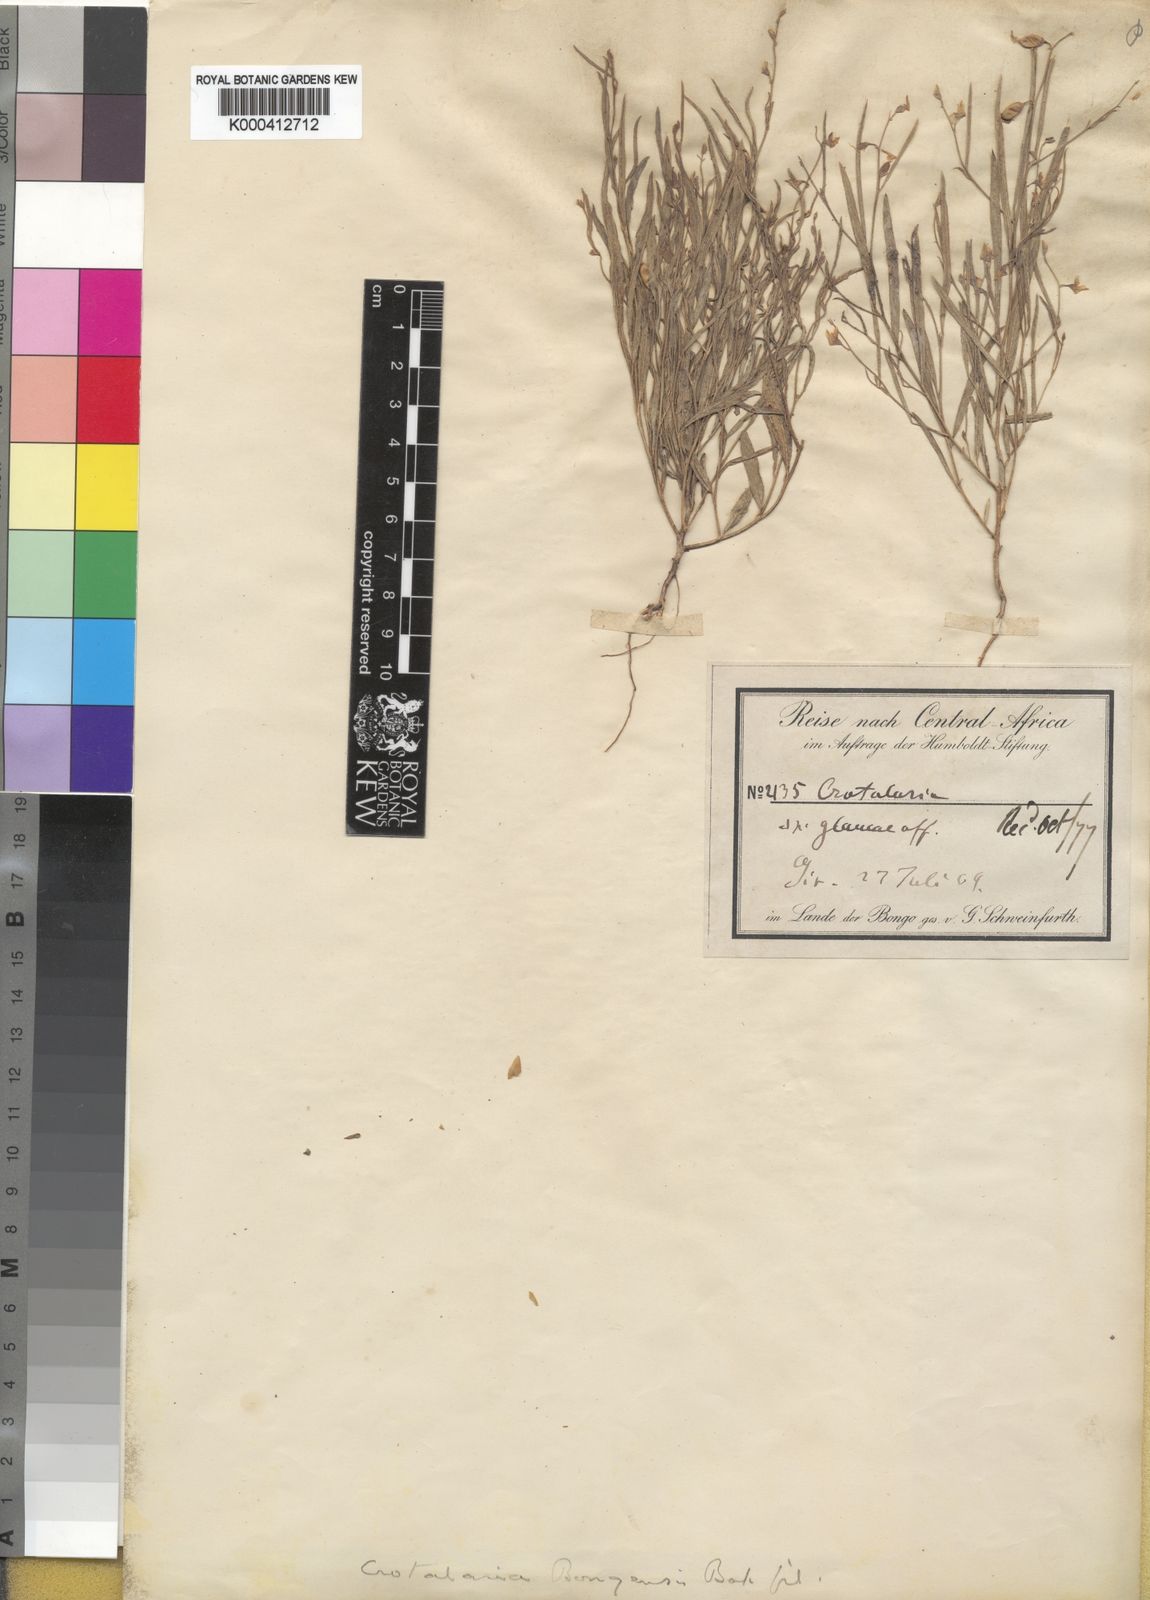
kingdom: Plantae
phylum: Tracheophyta
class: Magnoliopsida
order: Fabales
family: Fabaceae
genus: Crotalaria
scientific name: Crotalaria bongensis
